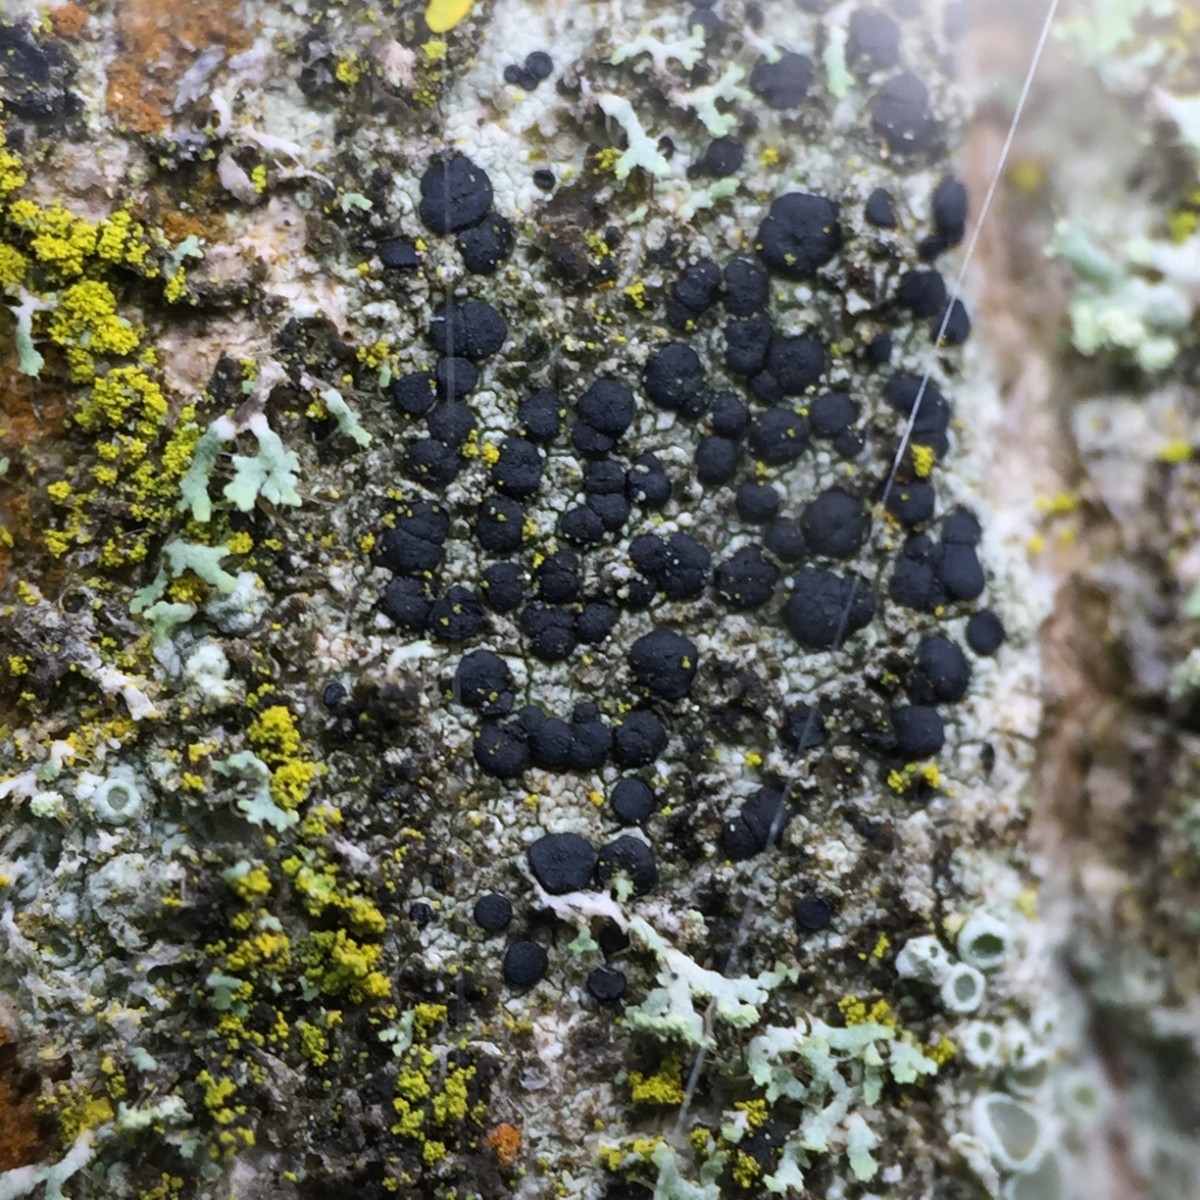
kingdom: Fungi
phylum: Ascomycota
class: Lecanoromycetes
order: Lecanorales
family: Lecanoraceae
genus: Lecidella
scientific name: Lecidella elaeochroma
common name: grågrøn skivelav
